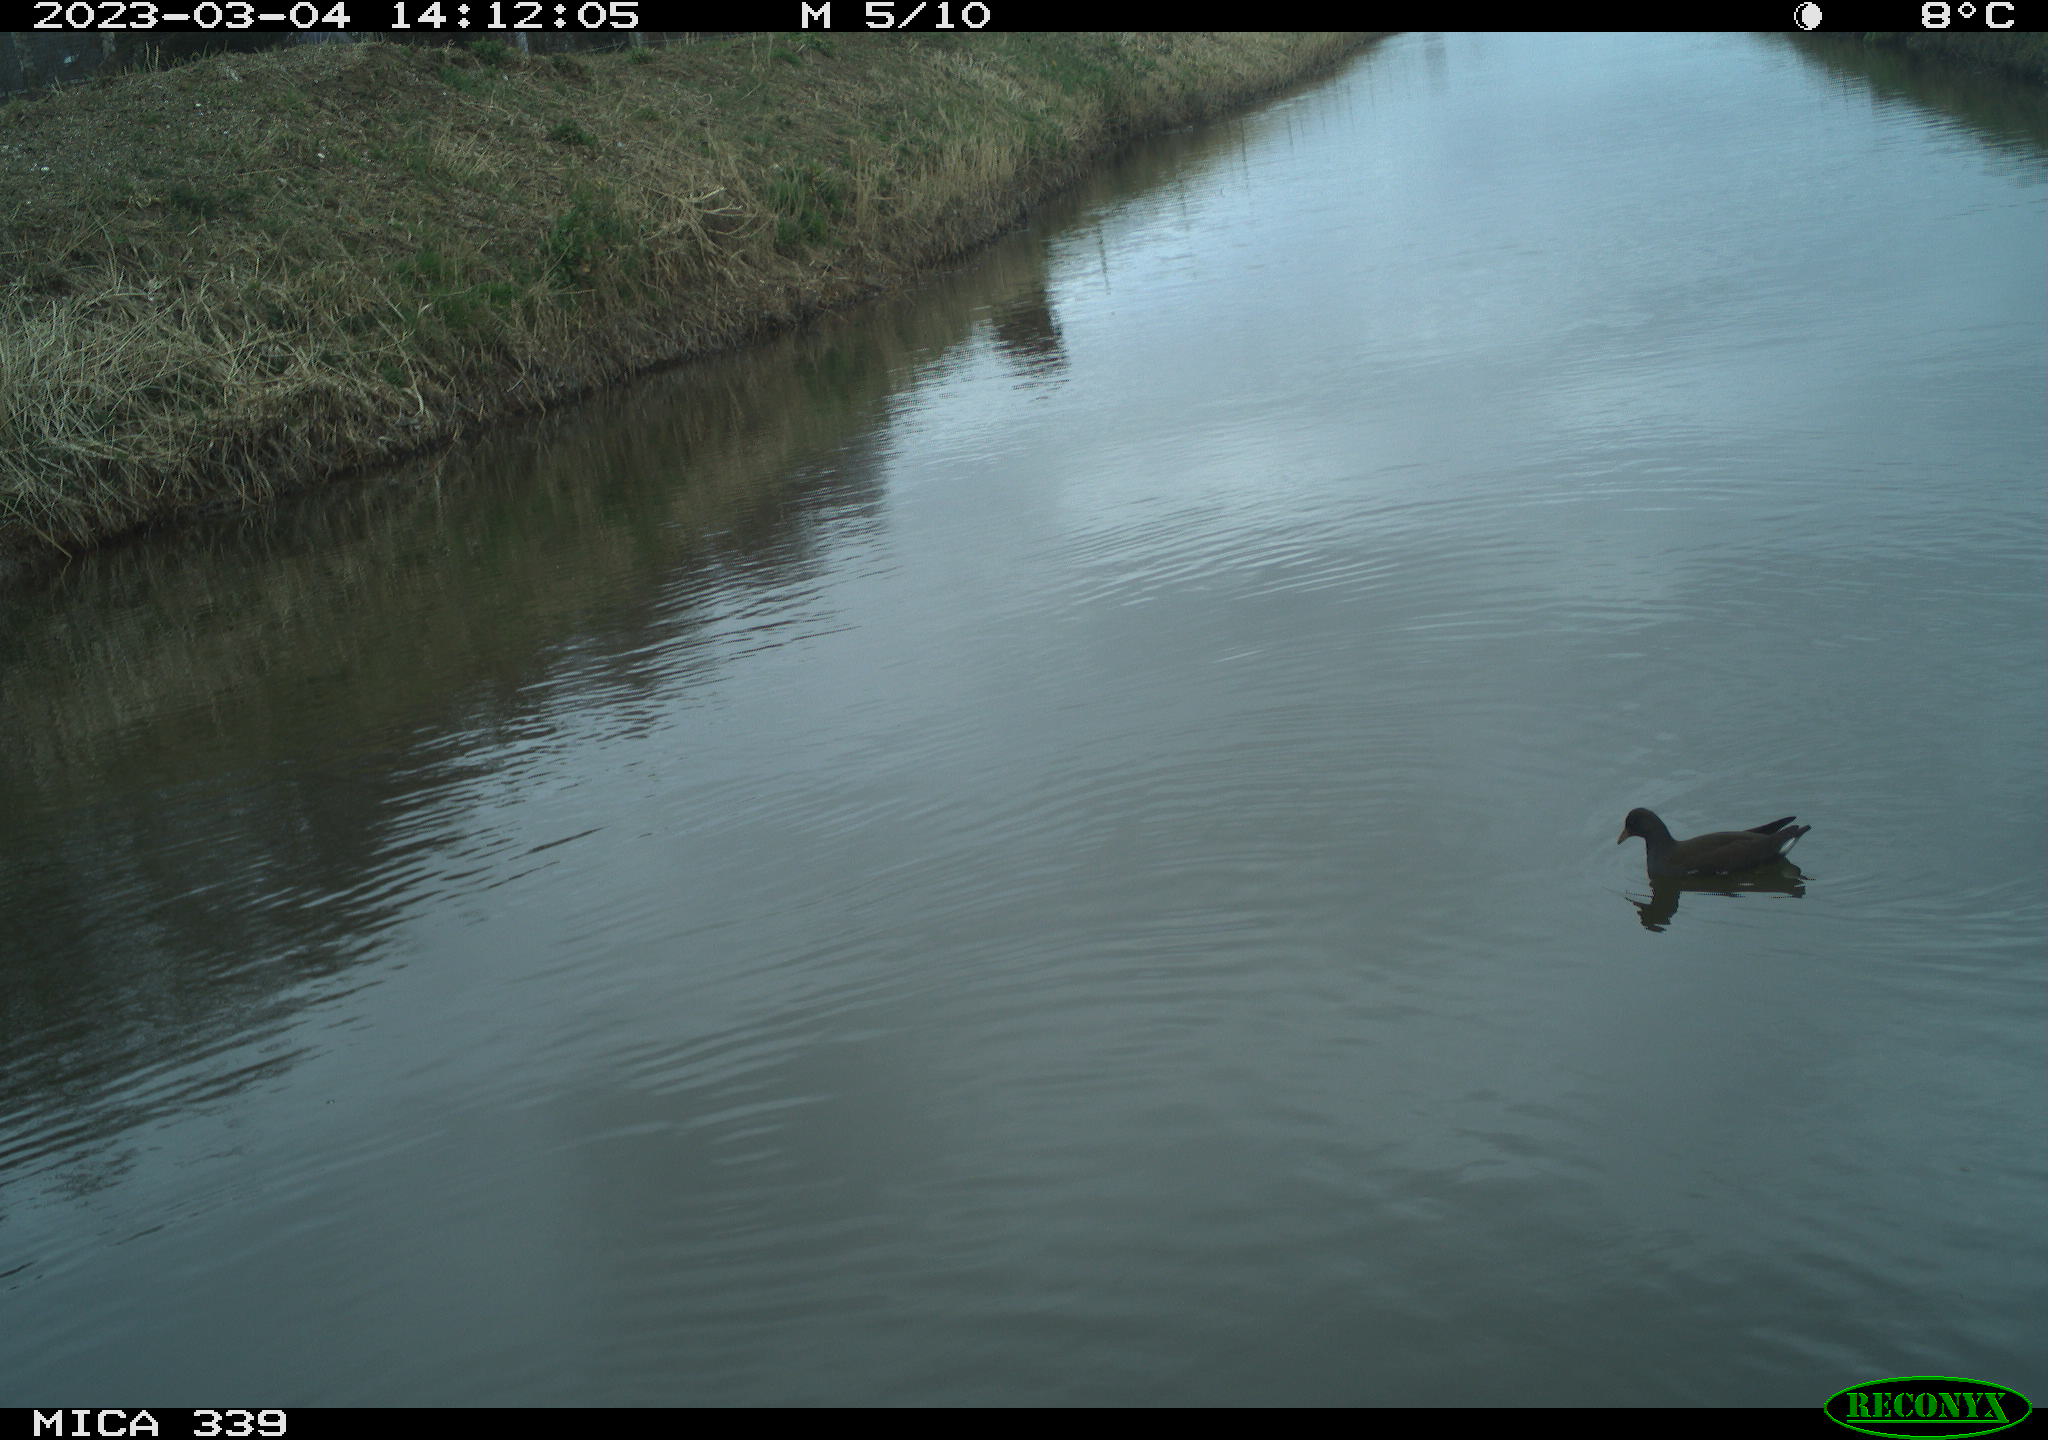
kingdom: Animalia
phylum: Chordata
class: Aves
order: Gruiformes
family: Rallidae
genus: Gallinula
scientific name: Gallinula chloropus
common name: Common moorhen
